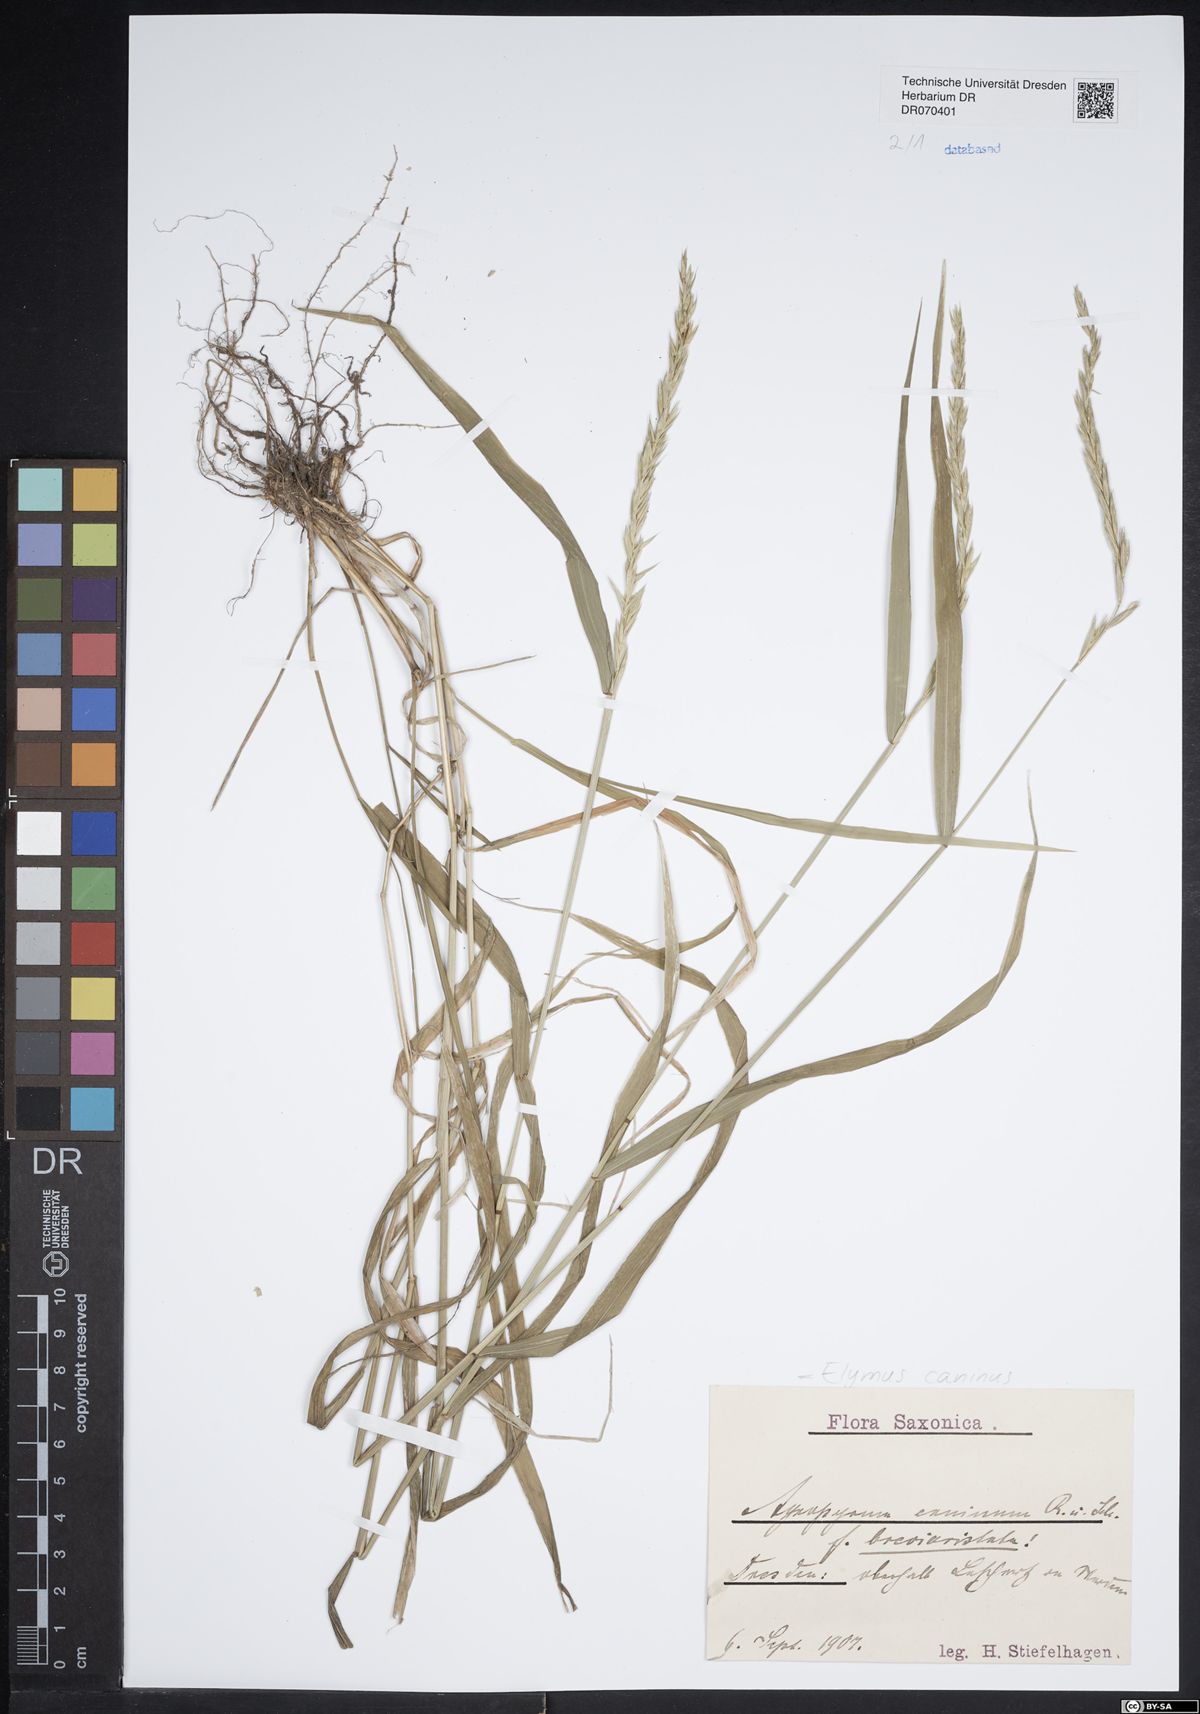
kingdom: Plantae
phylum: Tracheophyta
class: Liliopsida
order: Poales
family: Poaceae
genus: Elymus
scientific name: Elymus caninus
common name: Bearded couch
